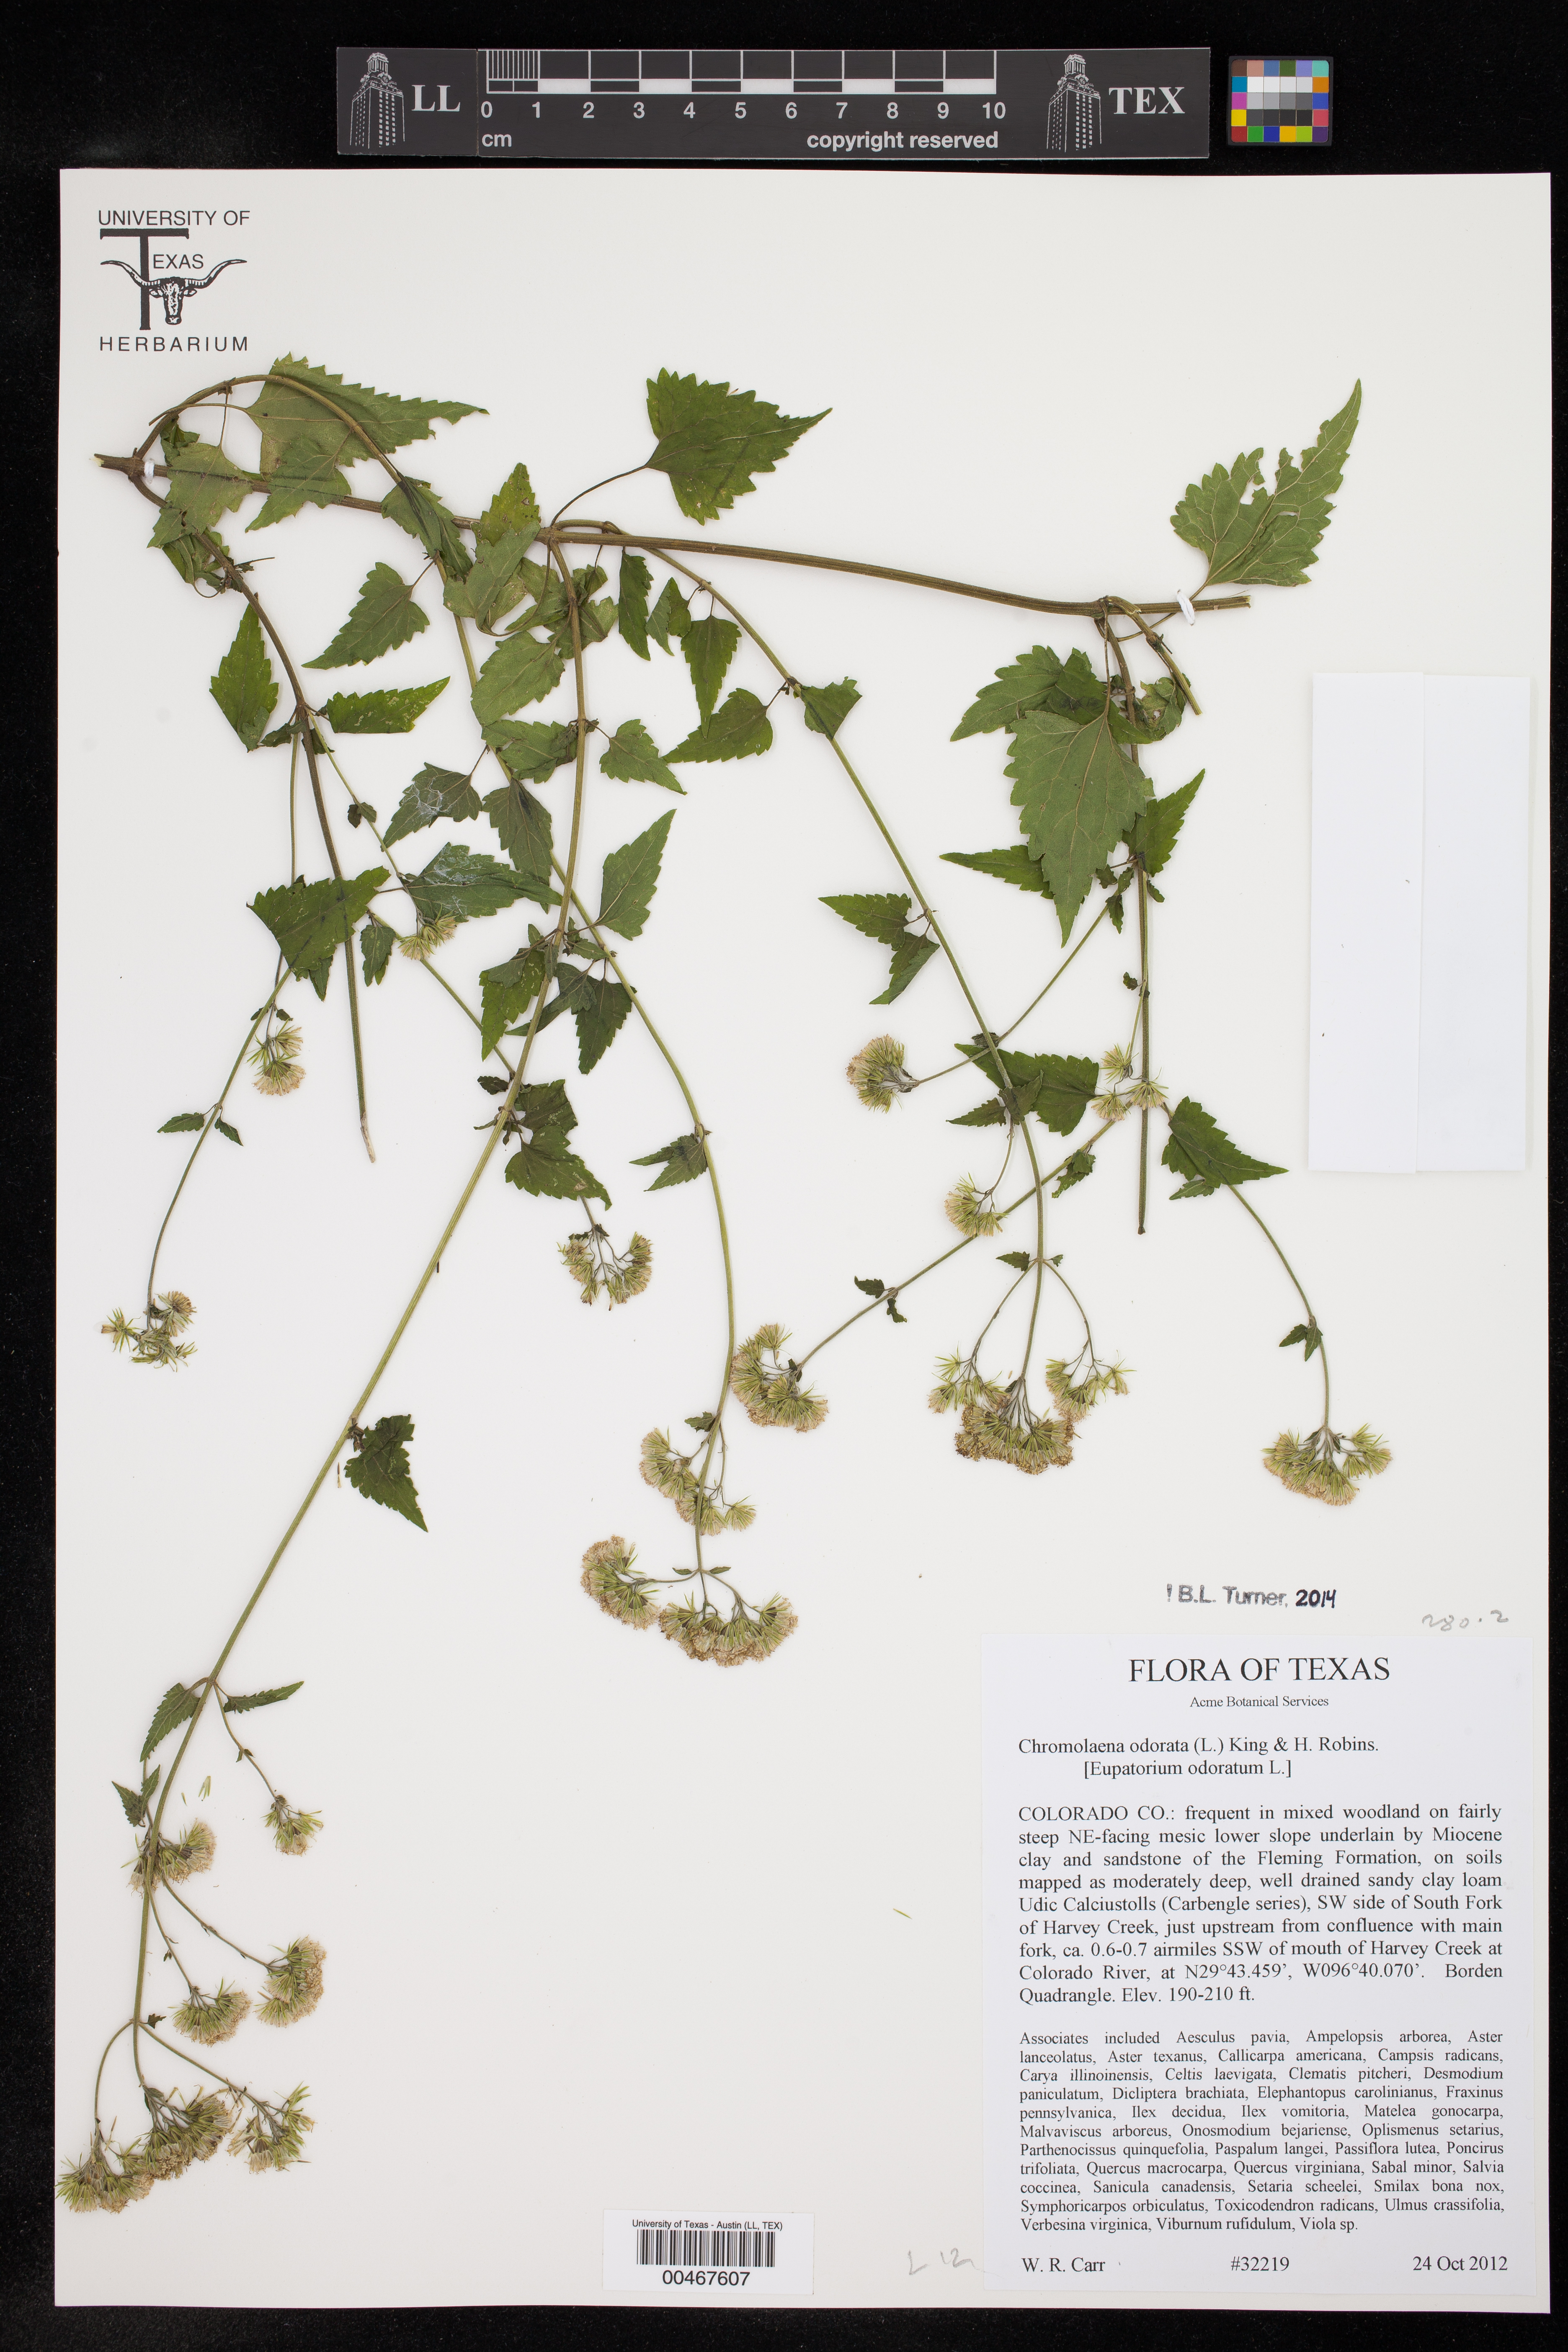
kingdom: Plantae
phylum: Tracheophyta
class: Magnoliopsida
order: Asterales
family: Asteraceae
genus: Chromolaena
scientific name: Chromolaena odorata
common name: Siamweed
